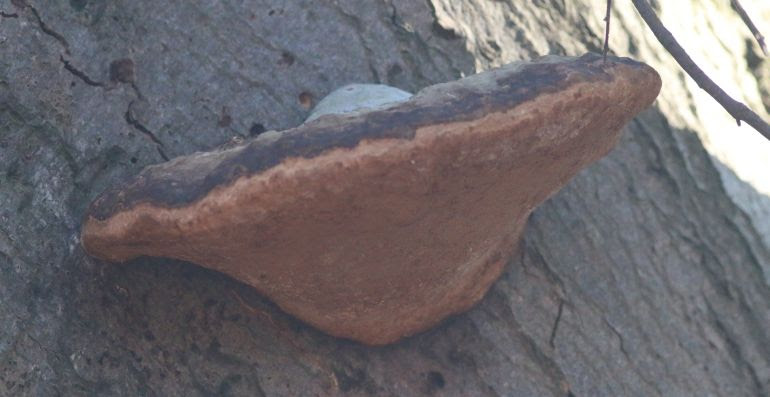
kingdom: Fungi
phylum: Basidiomycota
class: Agaricomycetes
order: Polyporales
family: Polyporaceae
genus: Fomes
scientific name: Fomes fomentarius
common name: tøndersvamp
